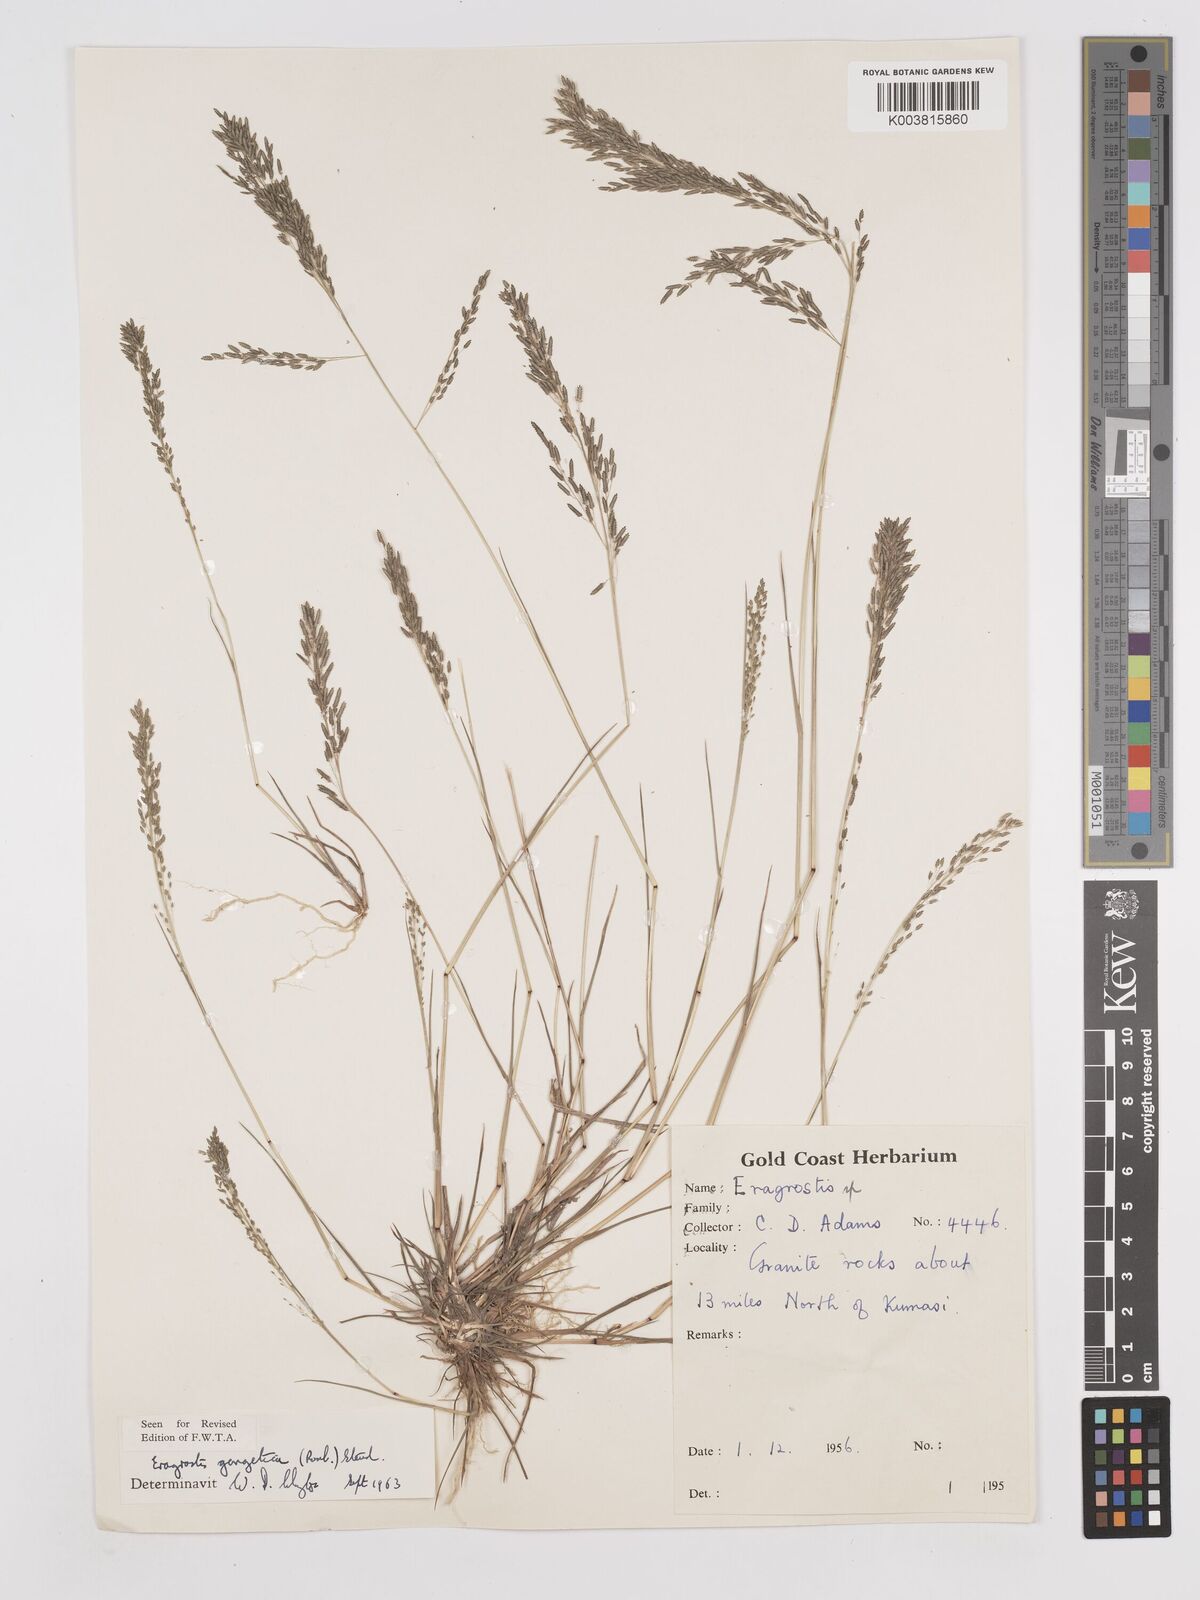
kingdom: Plantae
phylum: Tracheophyta
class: Liliopsida
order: Poales
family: Poaceae
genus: Eragrostis
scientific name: Eragrostis gangetica
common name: Slimflower lovegrass
